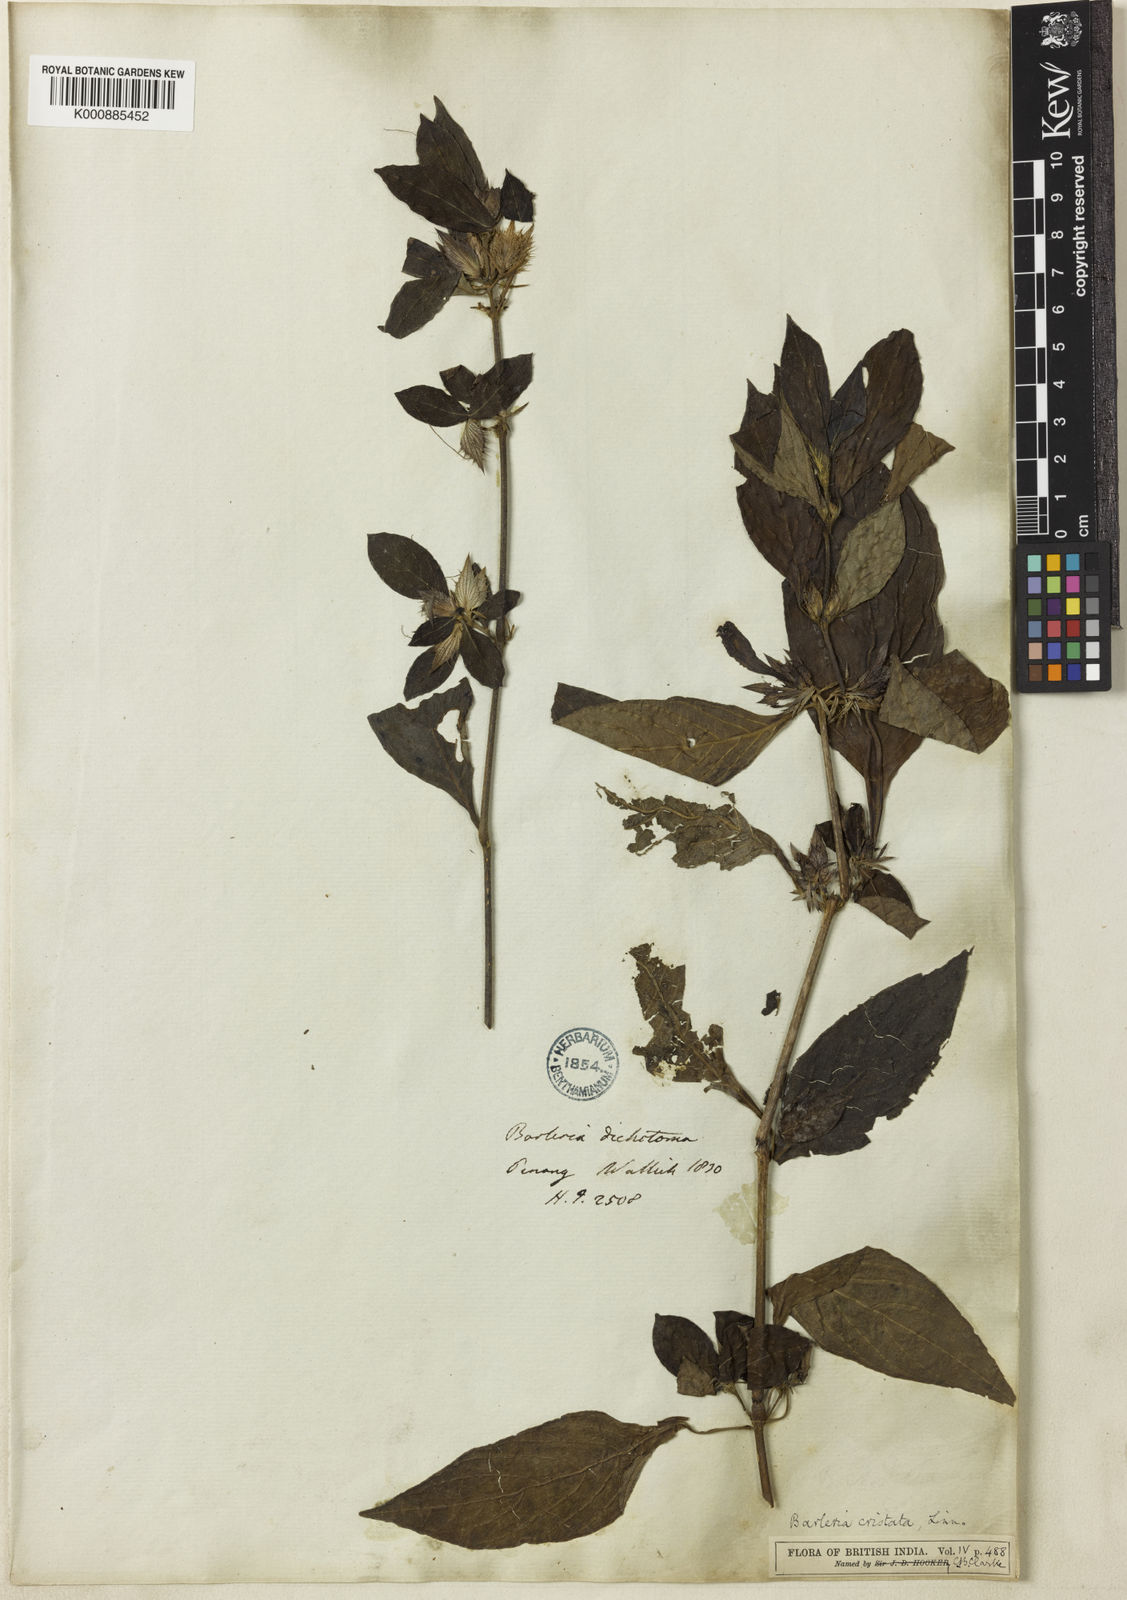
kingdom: Plantae
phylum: Tracheophyta
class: Magnoliopsida
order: Lamiales
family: Acanthaceae
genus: Barleria
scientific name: Barleria cristata
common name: Crested philippine violet
